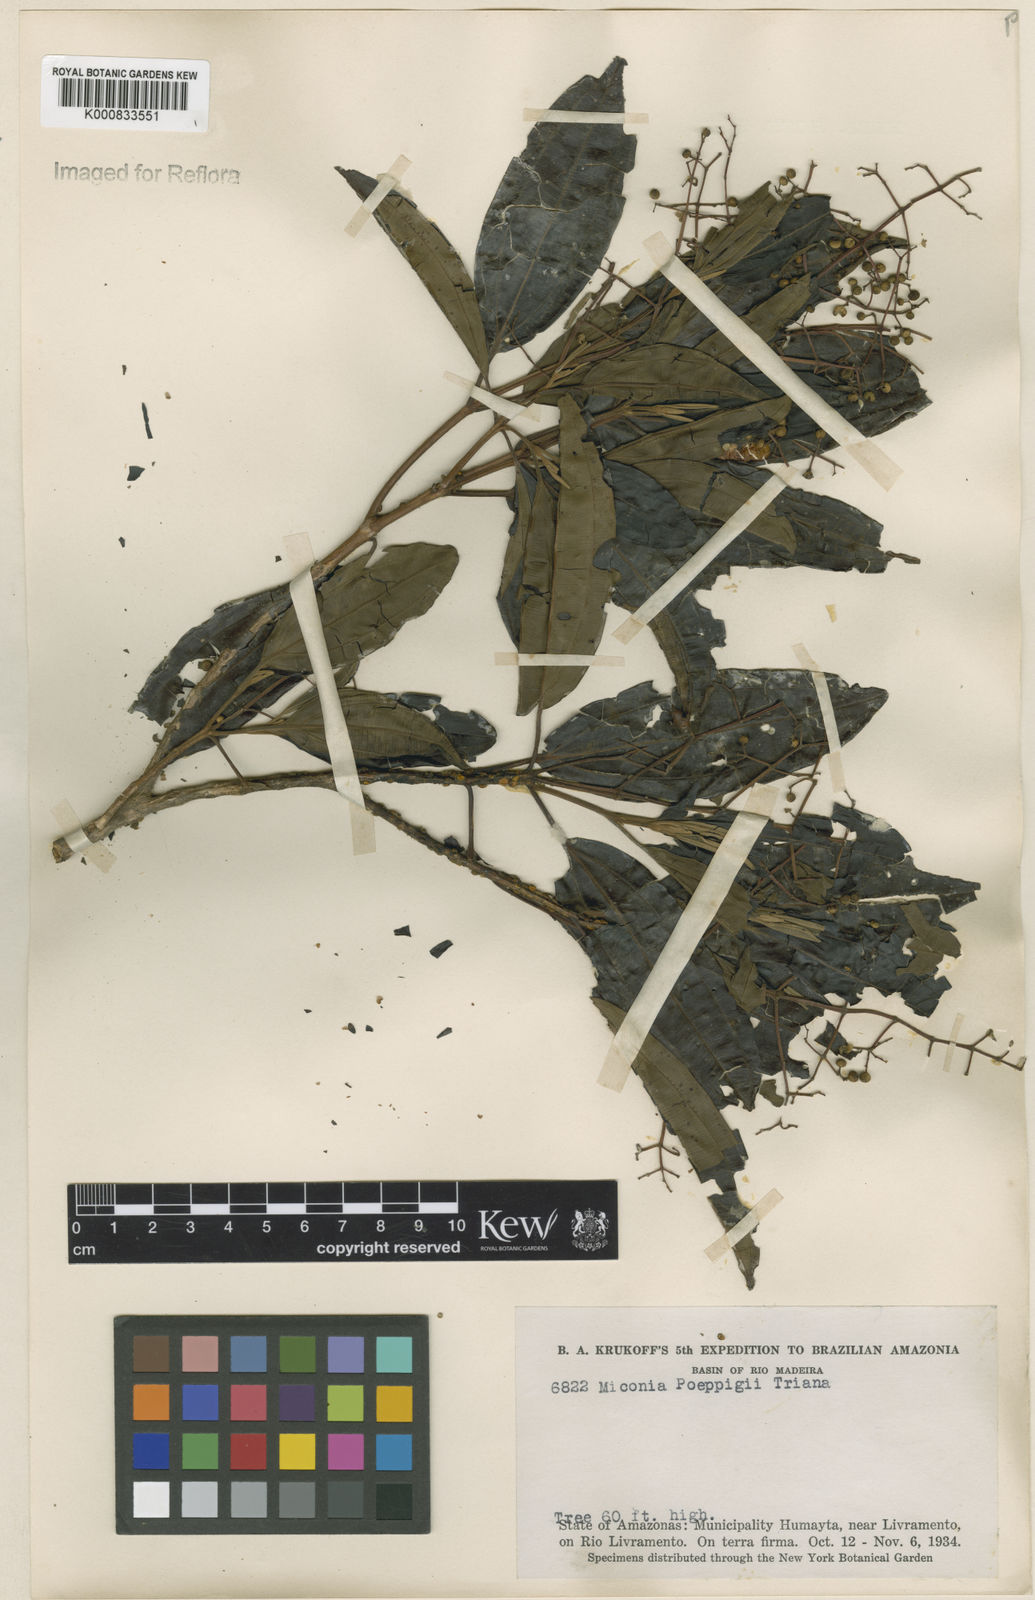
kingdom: Plantae
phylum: Tracheophyta
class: Magnoliopsida
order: Myrtales
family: Melastomataceae
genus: Miconia
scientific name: Miconia poeppigii
